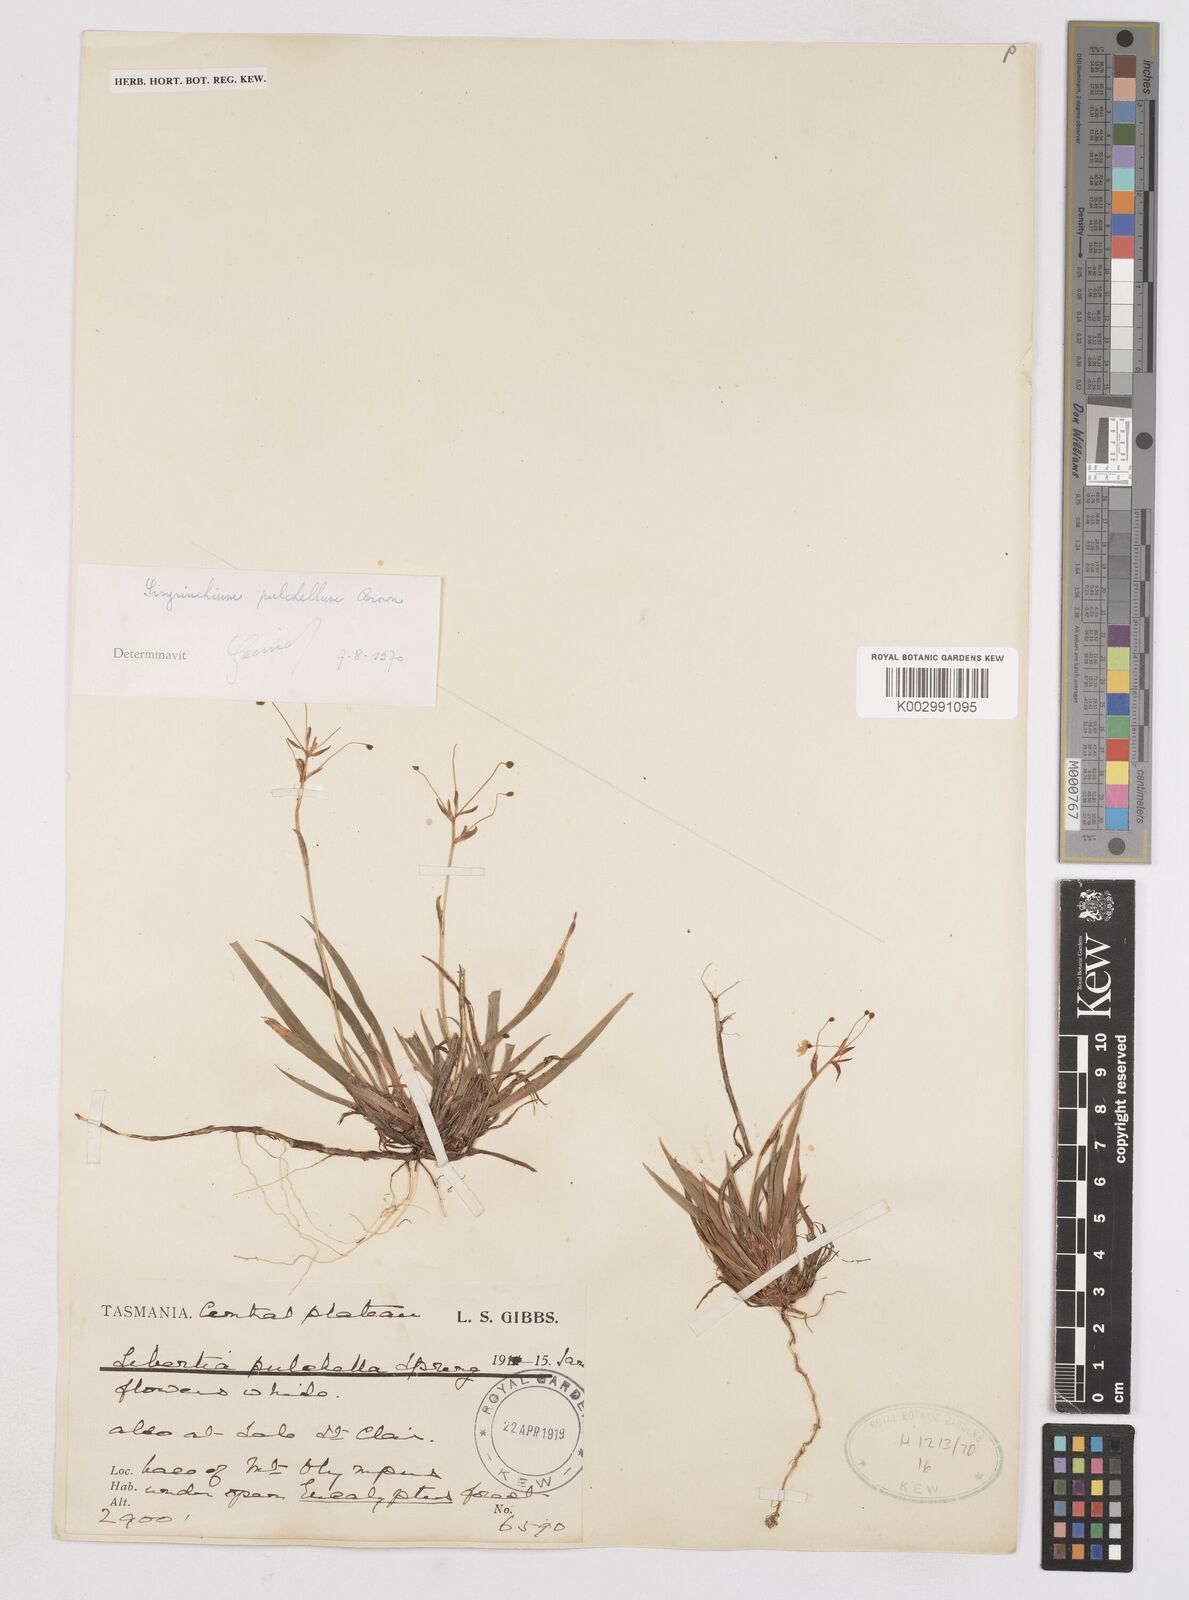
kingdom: Plantae
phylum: Tracheophyta
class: Liliopsida
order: Asparagales
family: Iridaceae
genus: Libertia
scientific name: Libertia pulchella
